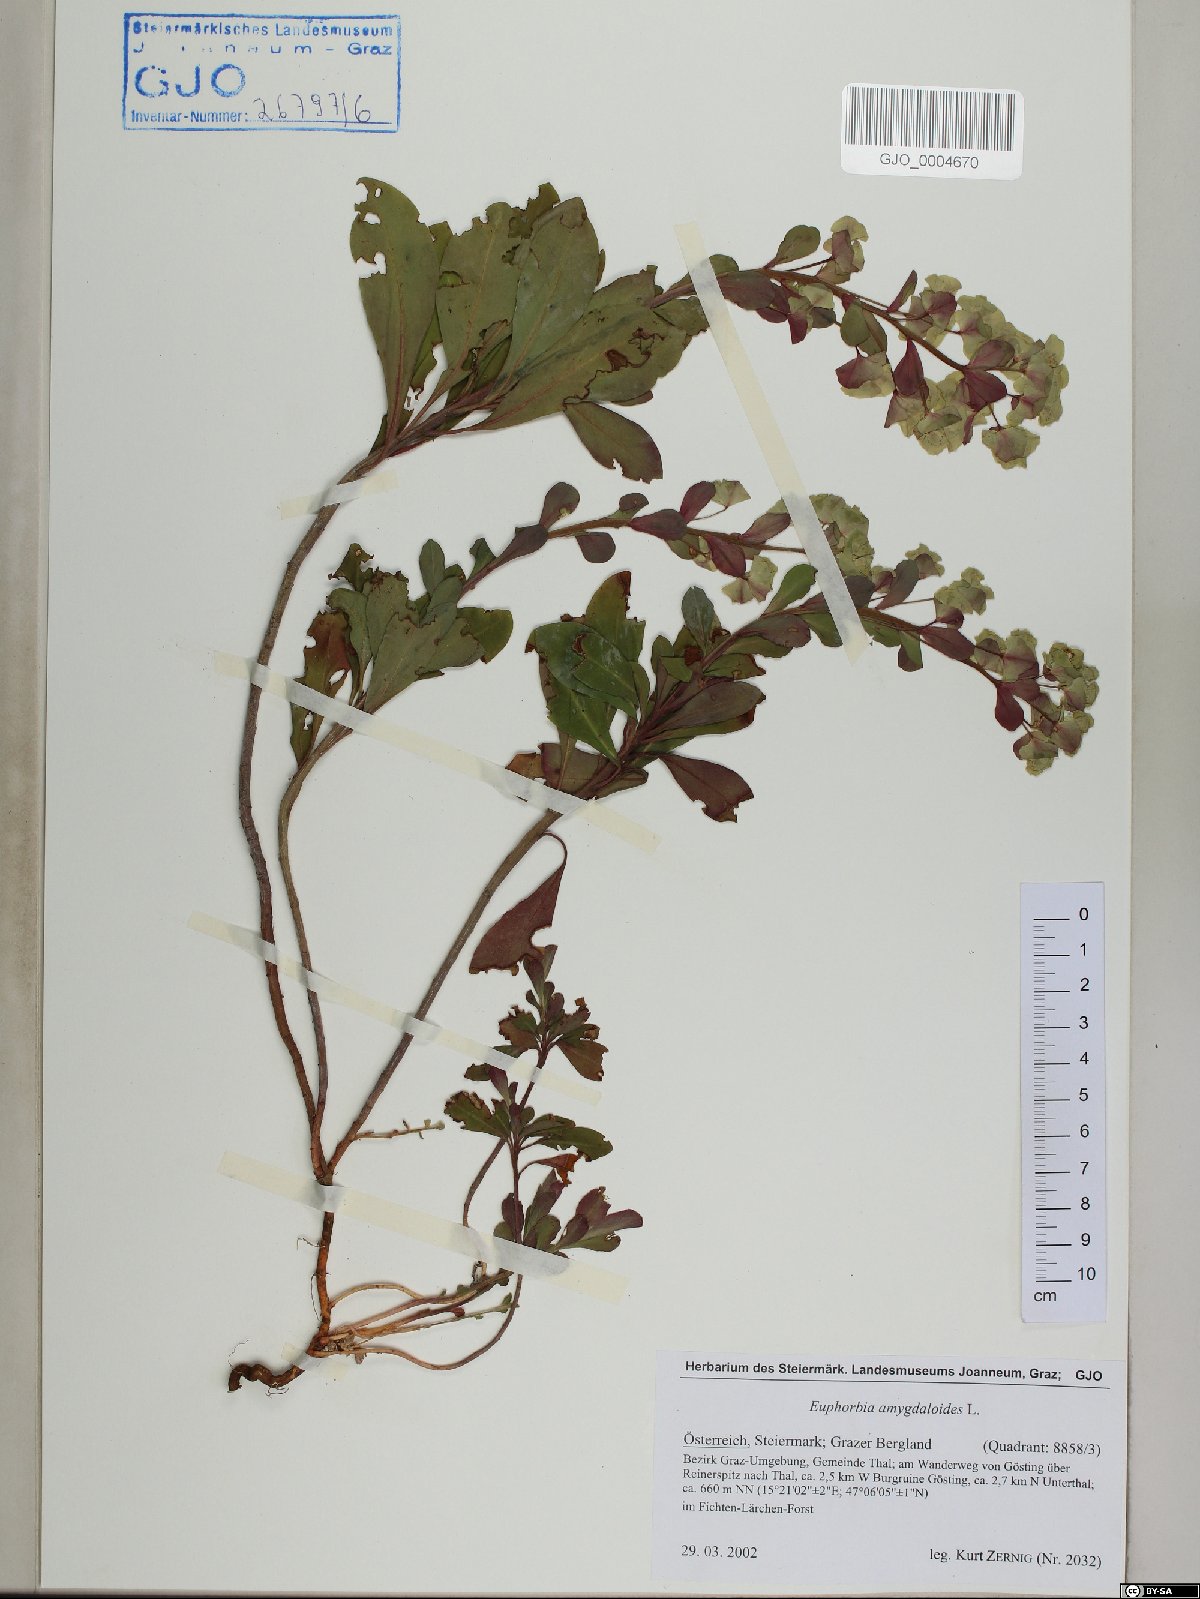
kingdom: Plantae
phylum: Tracheophyta
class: Magnoliopsida
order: Malpighiales
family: Euphorbiaceae
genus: Euphorbia
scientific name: Euphorbia amygdaloides
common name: Wood spurge
